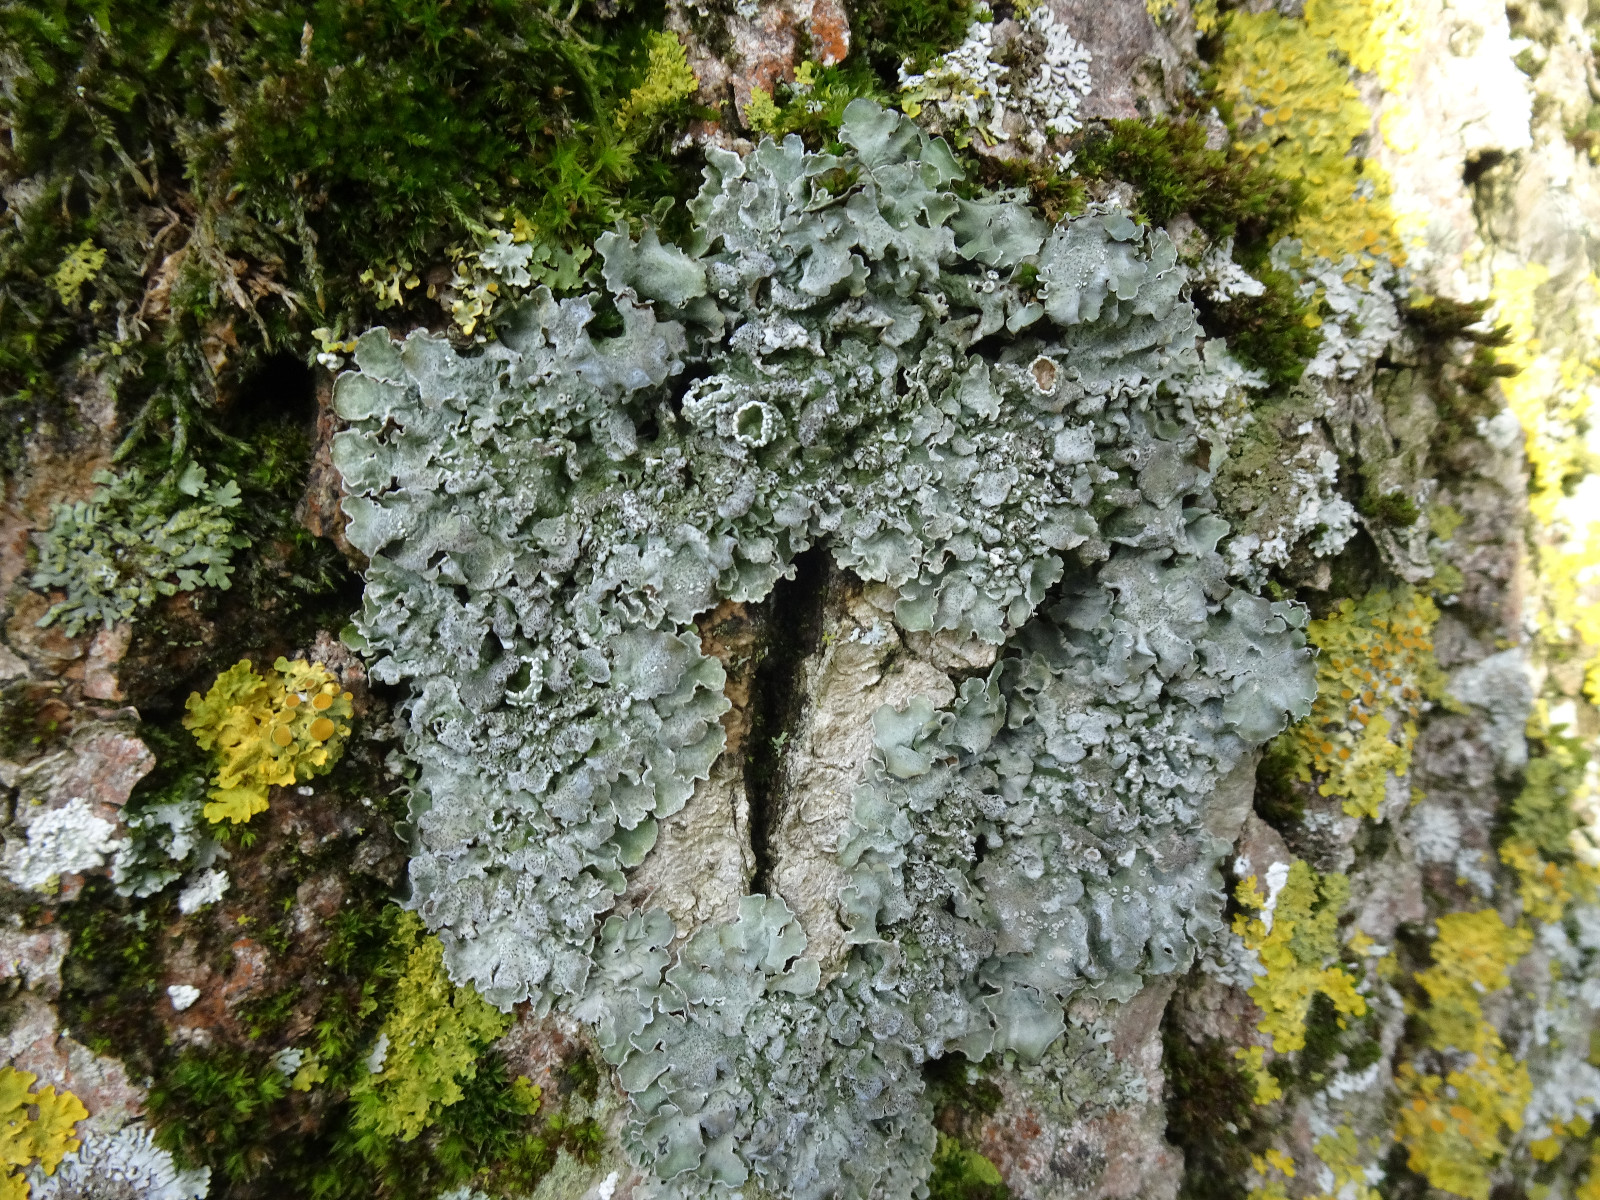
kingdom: Fungi
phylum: Ascomycota
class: Lecanoromycetes
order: Lecanorales
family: Parmeliaceae
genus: Pleurosticta
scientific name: Pleurosticta acetabulum
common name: stor skållav
